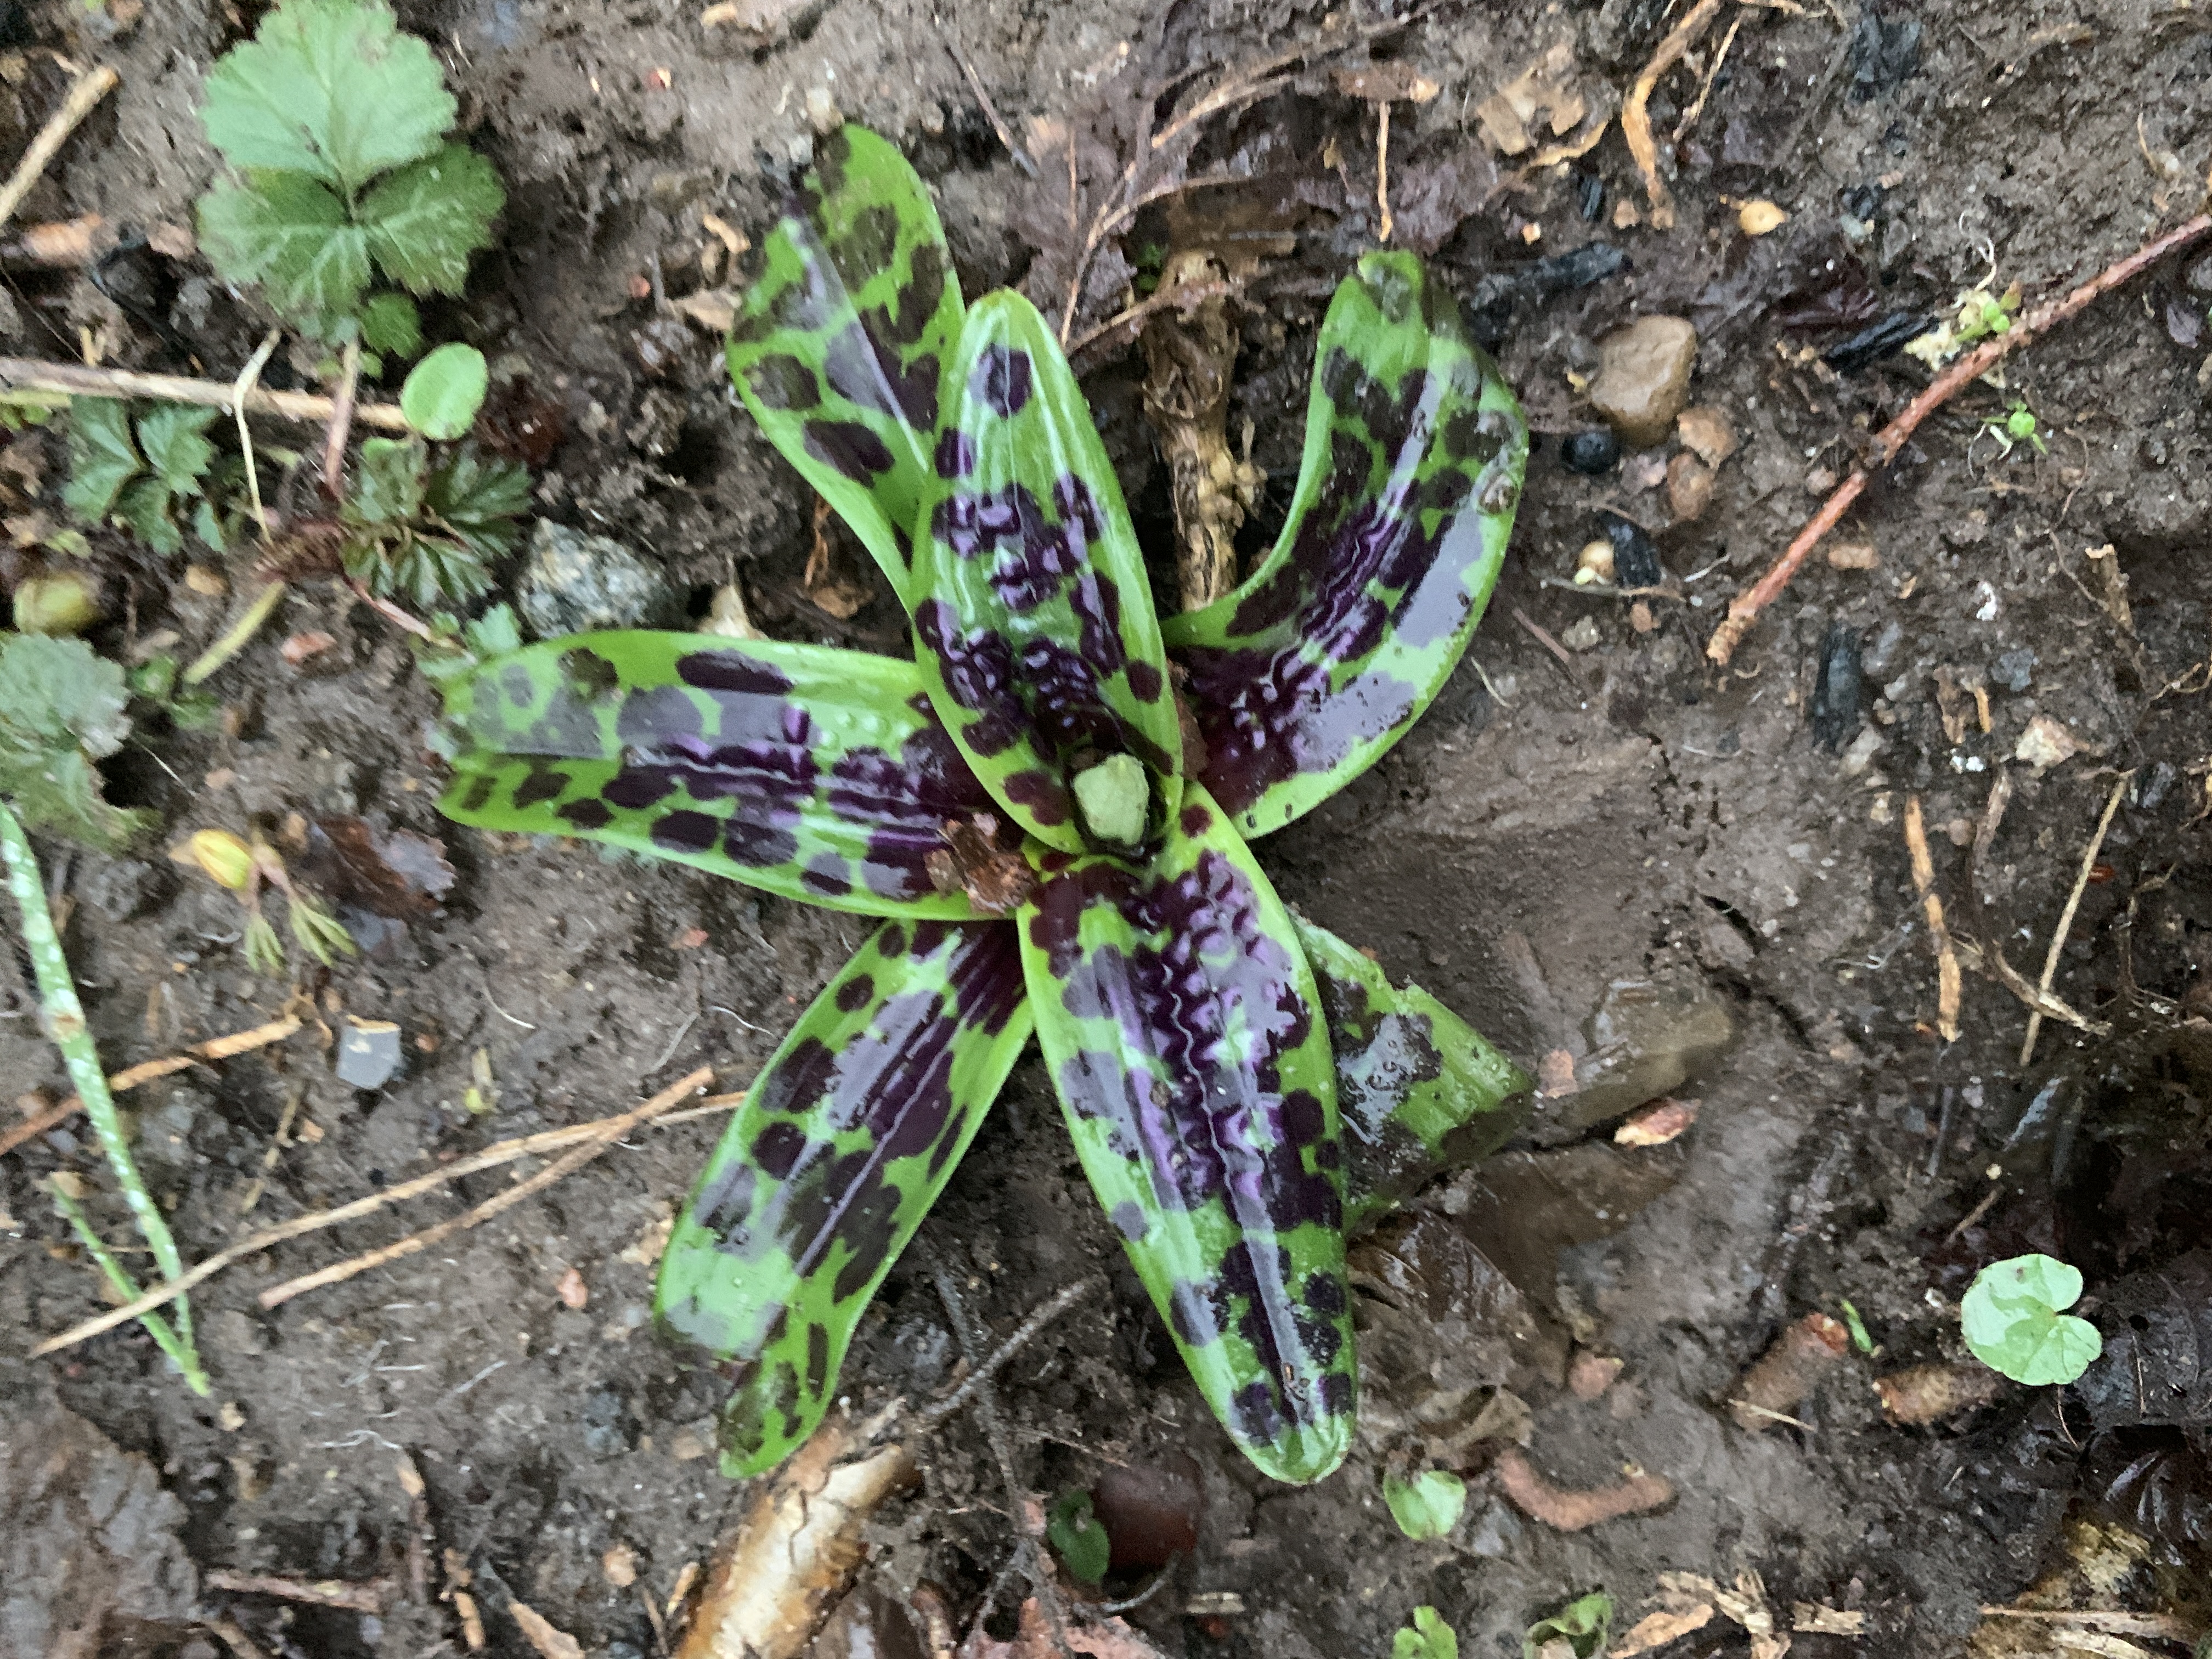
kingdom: Plantae
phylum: Tracheophyta
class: Liliopsida
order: Asparagales
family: Orchidaceae
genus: Orchis
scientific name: Orchis mascula
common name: Tyndakset gøgeurt
